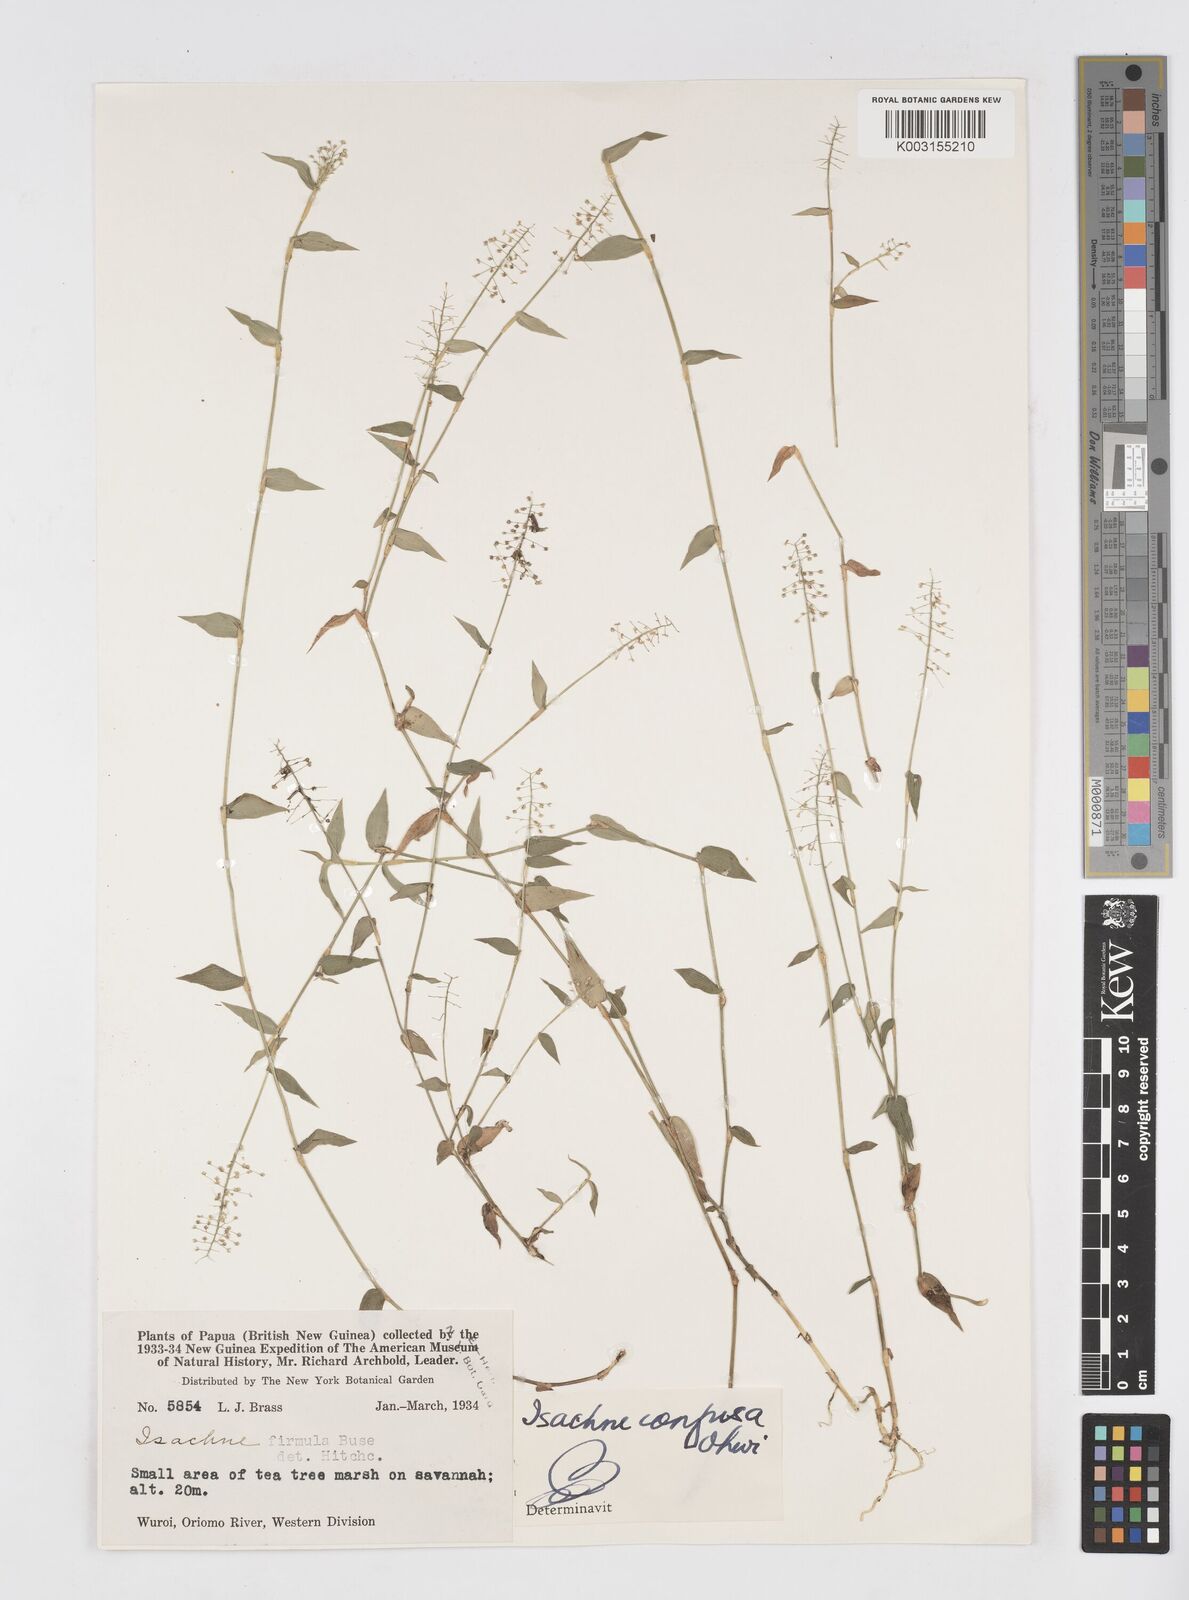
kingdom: Plantae
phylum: Tracheophyta
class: Liliopsida
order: Poales
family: Poaceae
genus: Isachne
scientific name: Isachne confusa
